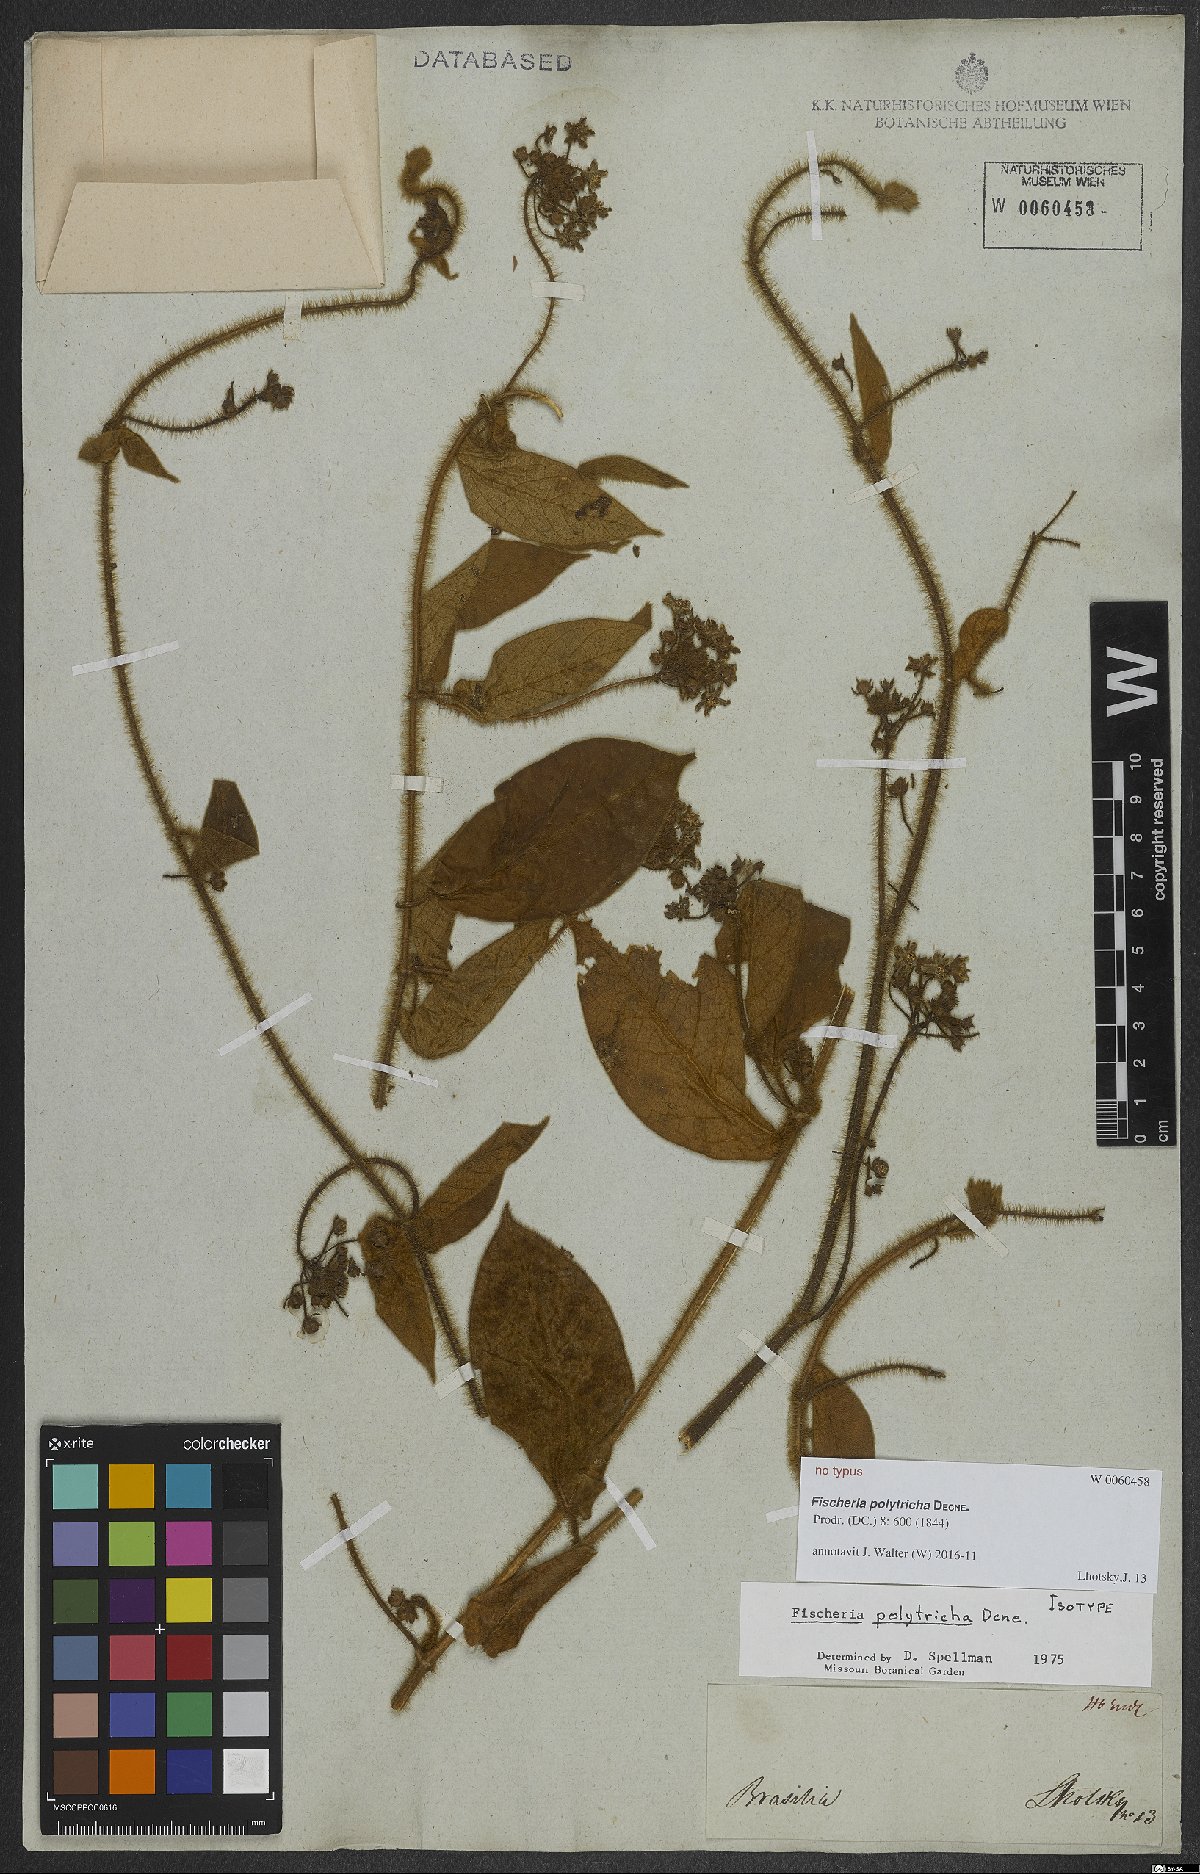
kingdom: Plantae
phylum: Tracheophyta
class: Magnoliopsida
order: Gentianales
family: Apocynaceae
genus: Fischeria
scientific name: Fischeria polytricha
